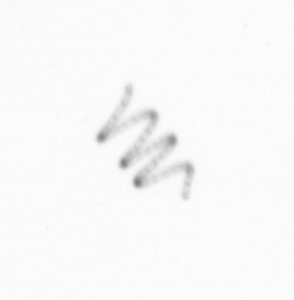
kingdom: Chromista
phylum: Ochrophyta
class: Bacillariophyceae
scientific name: Bacillariophyceae
